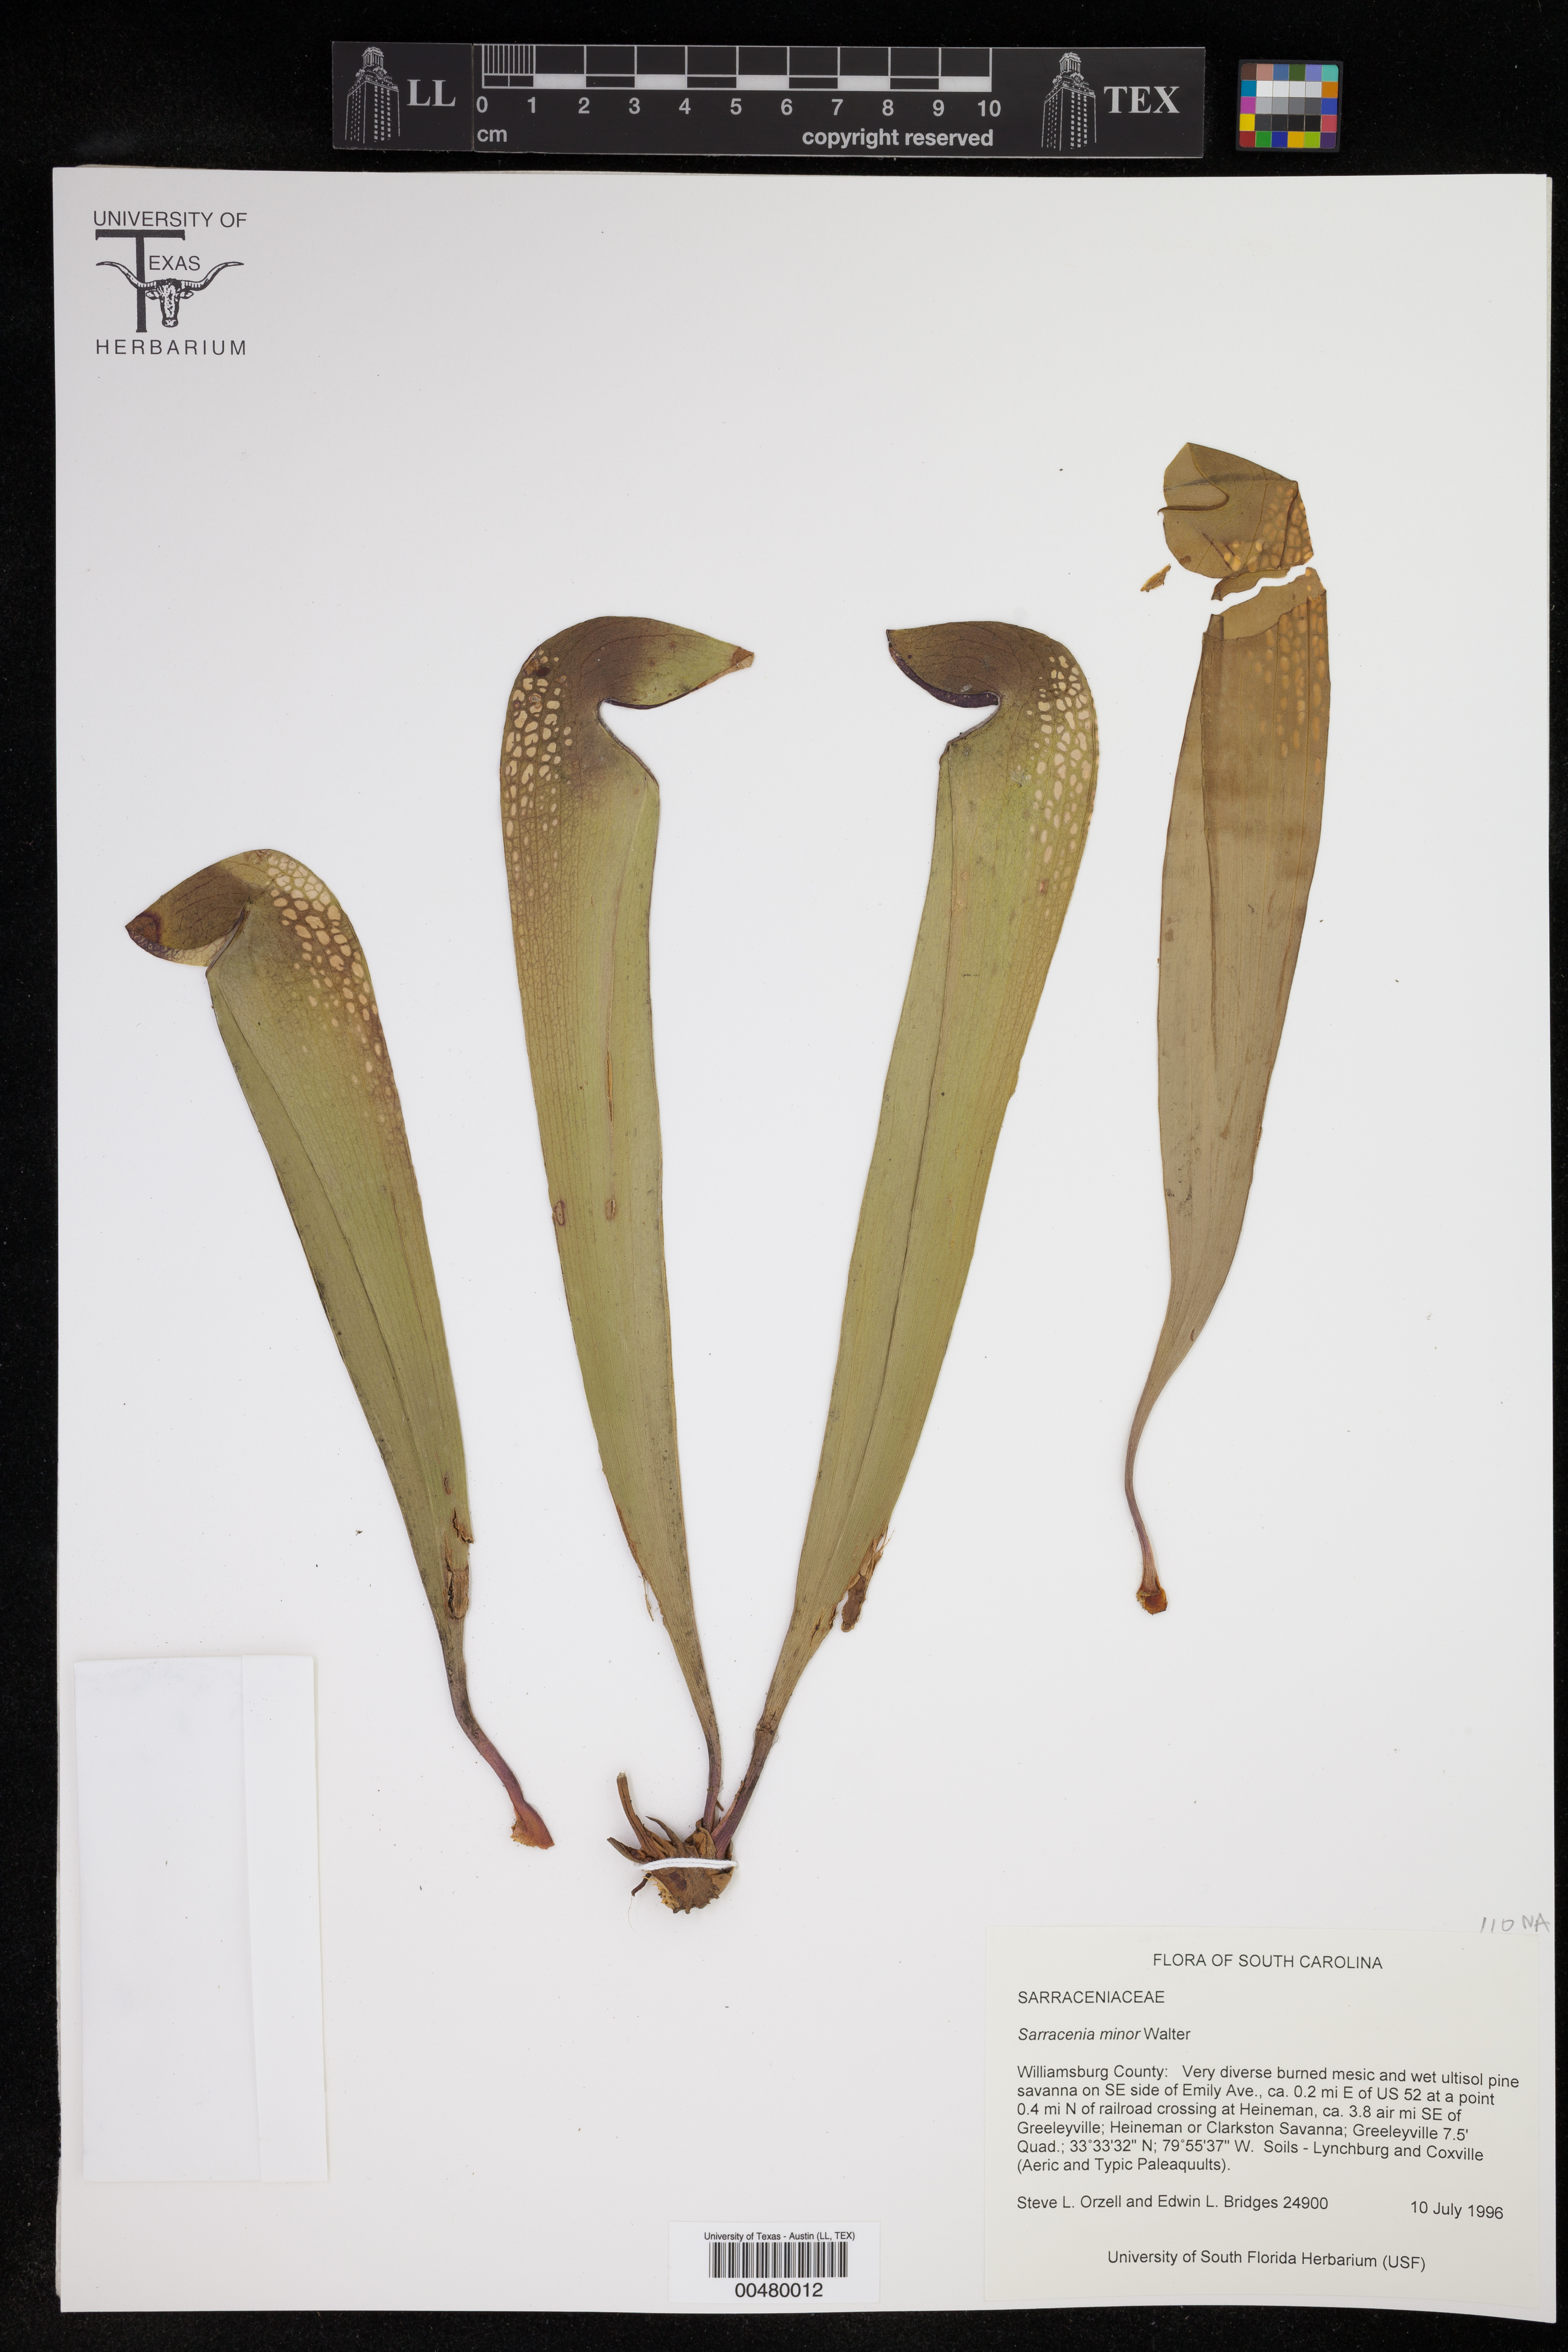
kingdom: Plantae
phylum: Tracheophyta
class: Magnoliopsida
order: Ericales
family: Sarraceniaceae
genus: Sarracenia
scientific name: Sarracenia minor
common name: Rainhat-trumpet
